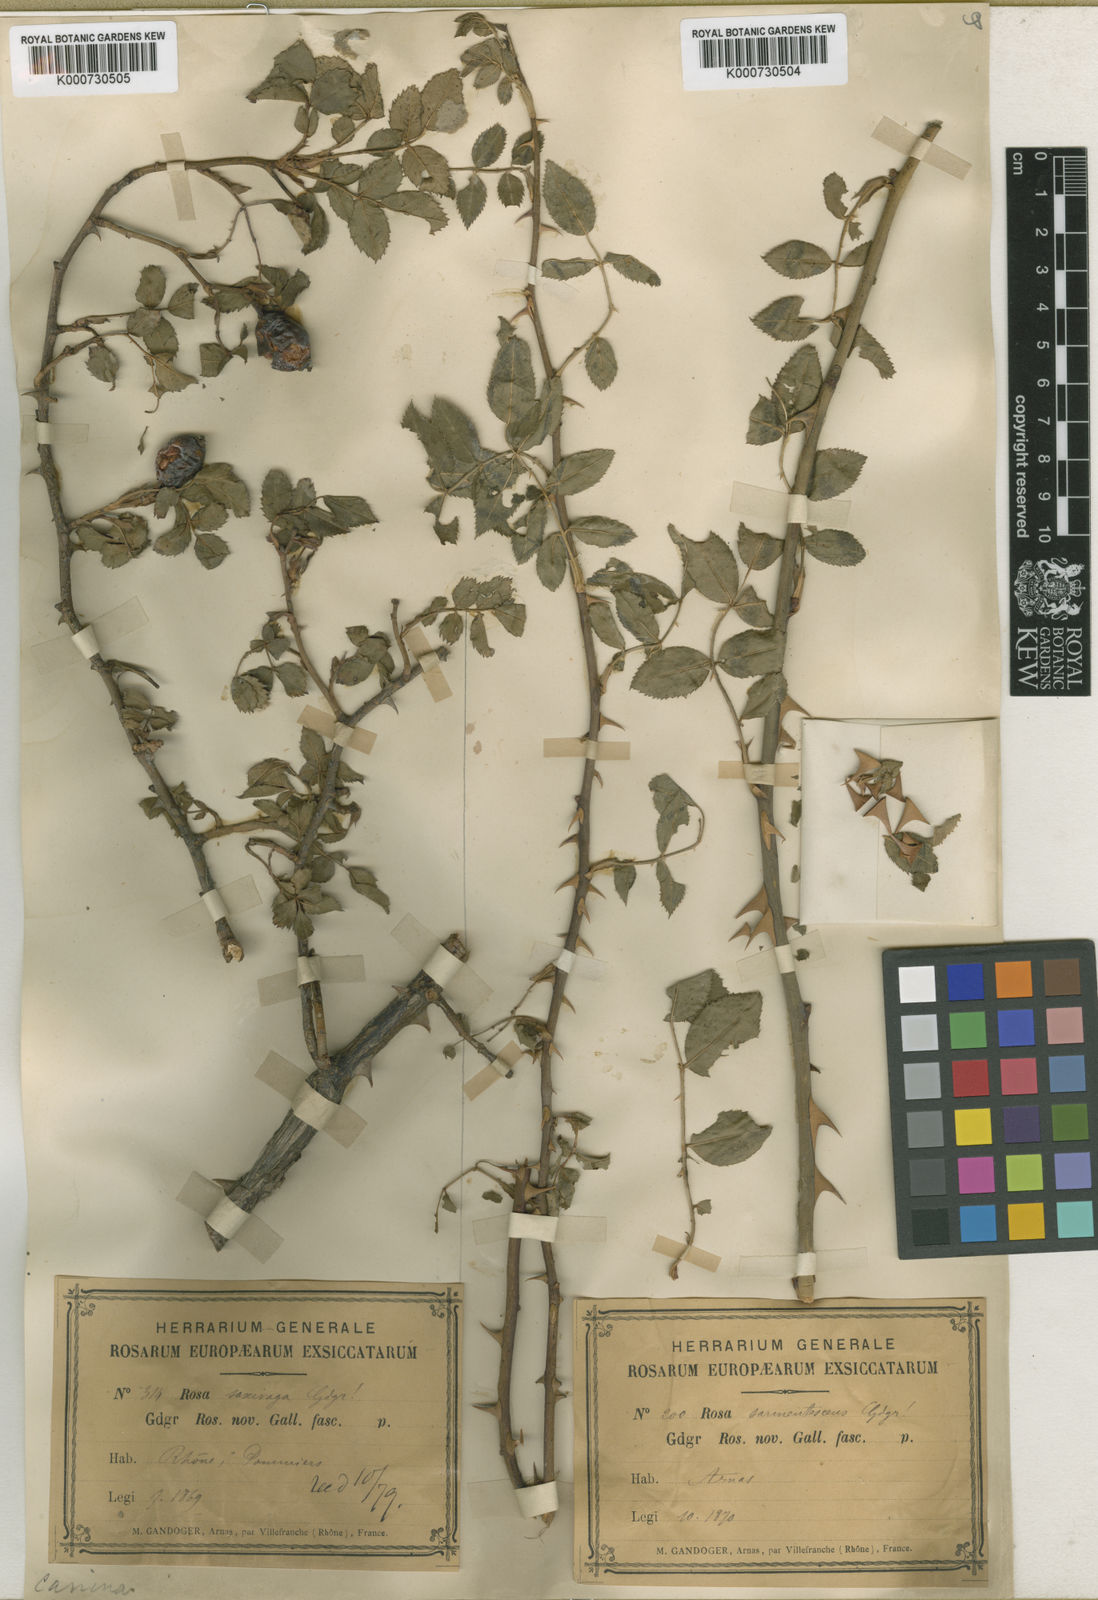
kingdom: Plantae
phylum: Tracheophyta
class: Magnoliopsida
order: Rosales
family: Rosaceae
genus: Rosa
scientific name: Rosa canina
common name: Dog rose
